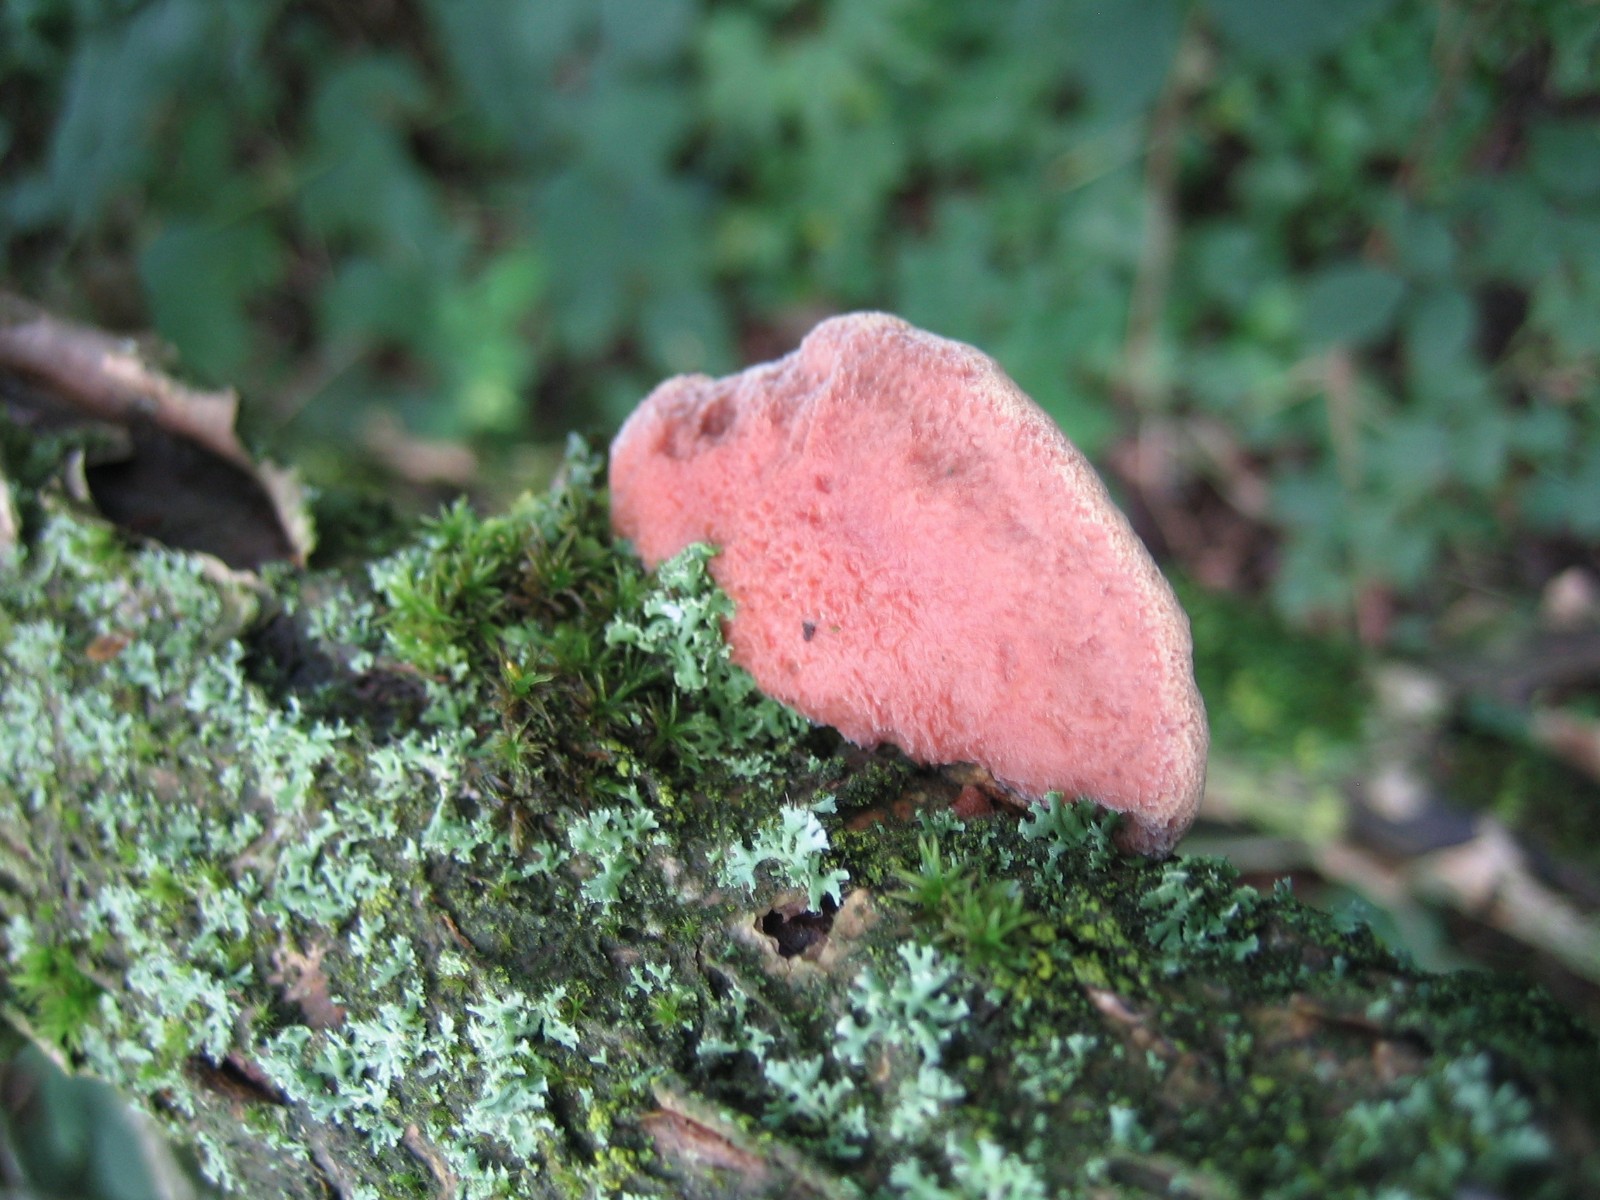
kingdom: Fungi
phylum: Basidiomycota
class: Agaricomycetes
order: Polyporales
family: Phanerochaetaceae
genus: Hapalopilus
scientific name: Hapalopilus rutilans
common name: rødlig okkerporesvamp
